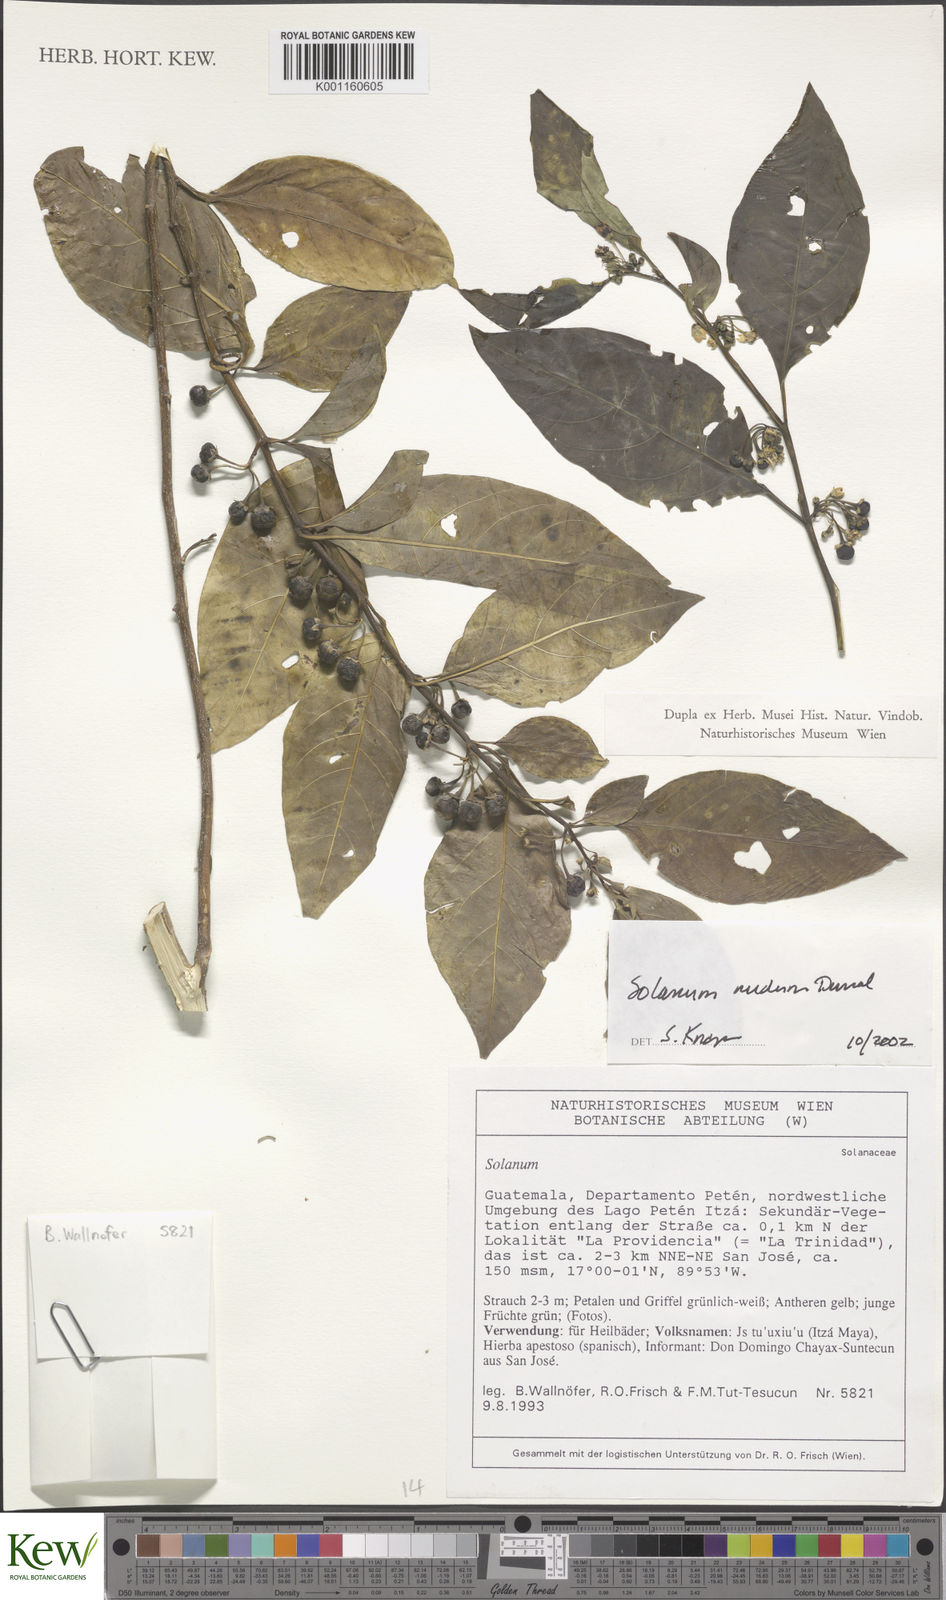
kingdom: Plantae
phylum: Tracheophyta
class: Magnoliopsida
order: Solanales
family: Solanaceae
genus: Solanum
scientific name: Solanum nudum
